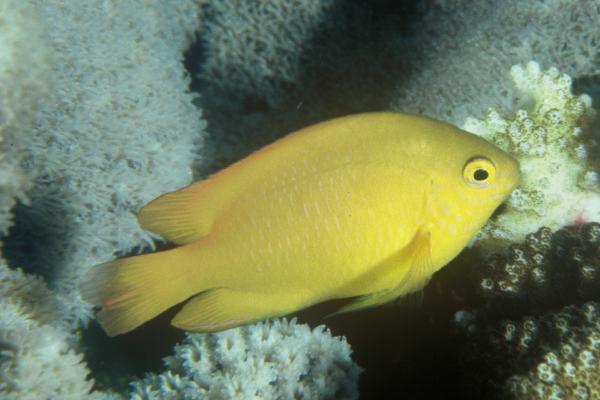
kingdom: Animalia
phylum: Chordata
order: Perciformes
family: Pomacentridae
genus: Pomacentrus
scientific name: Pomacentrus moluccensis
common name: Lemon damsel
